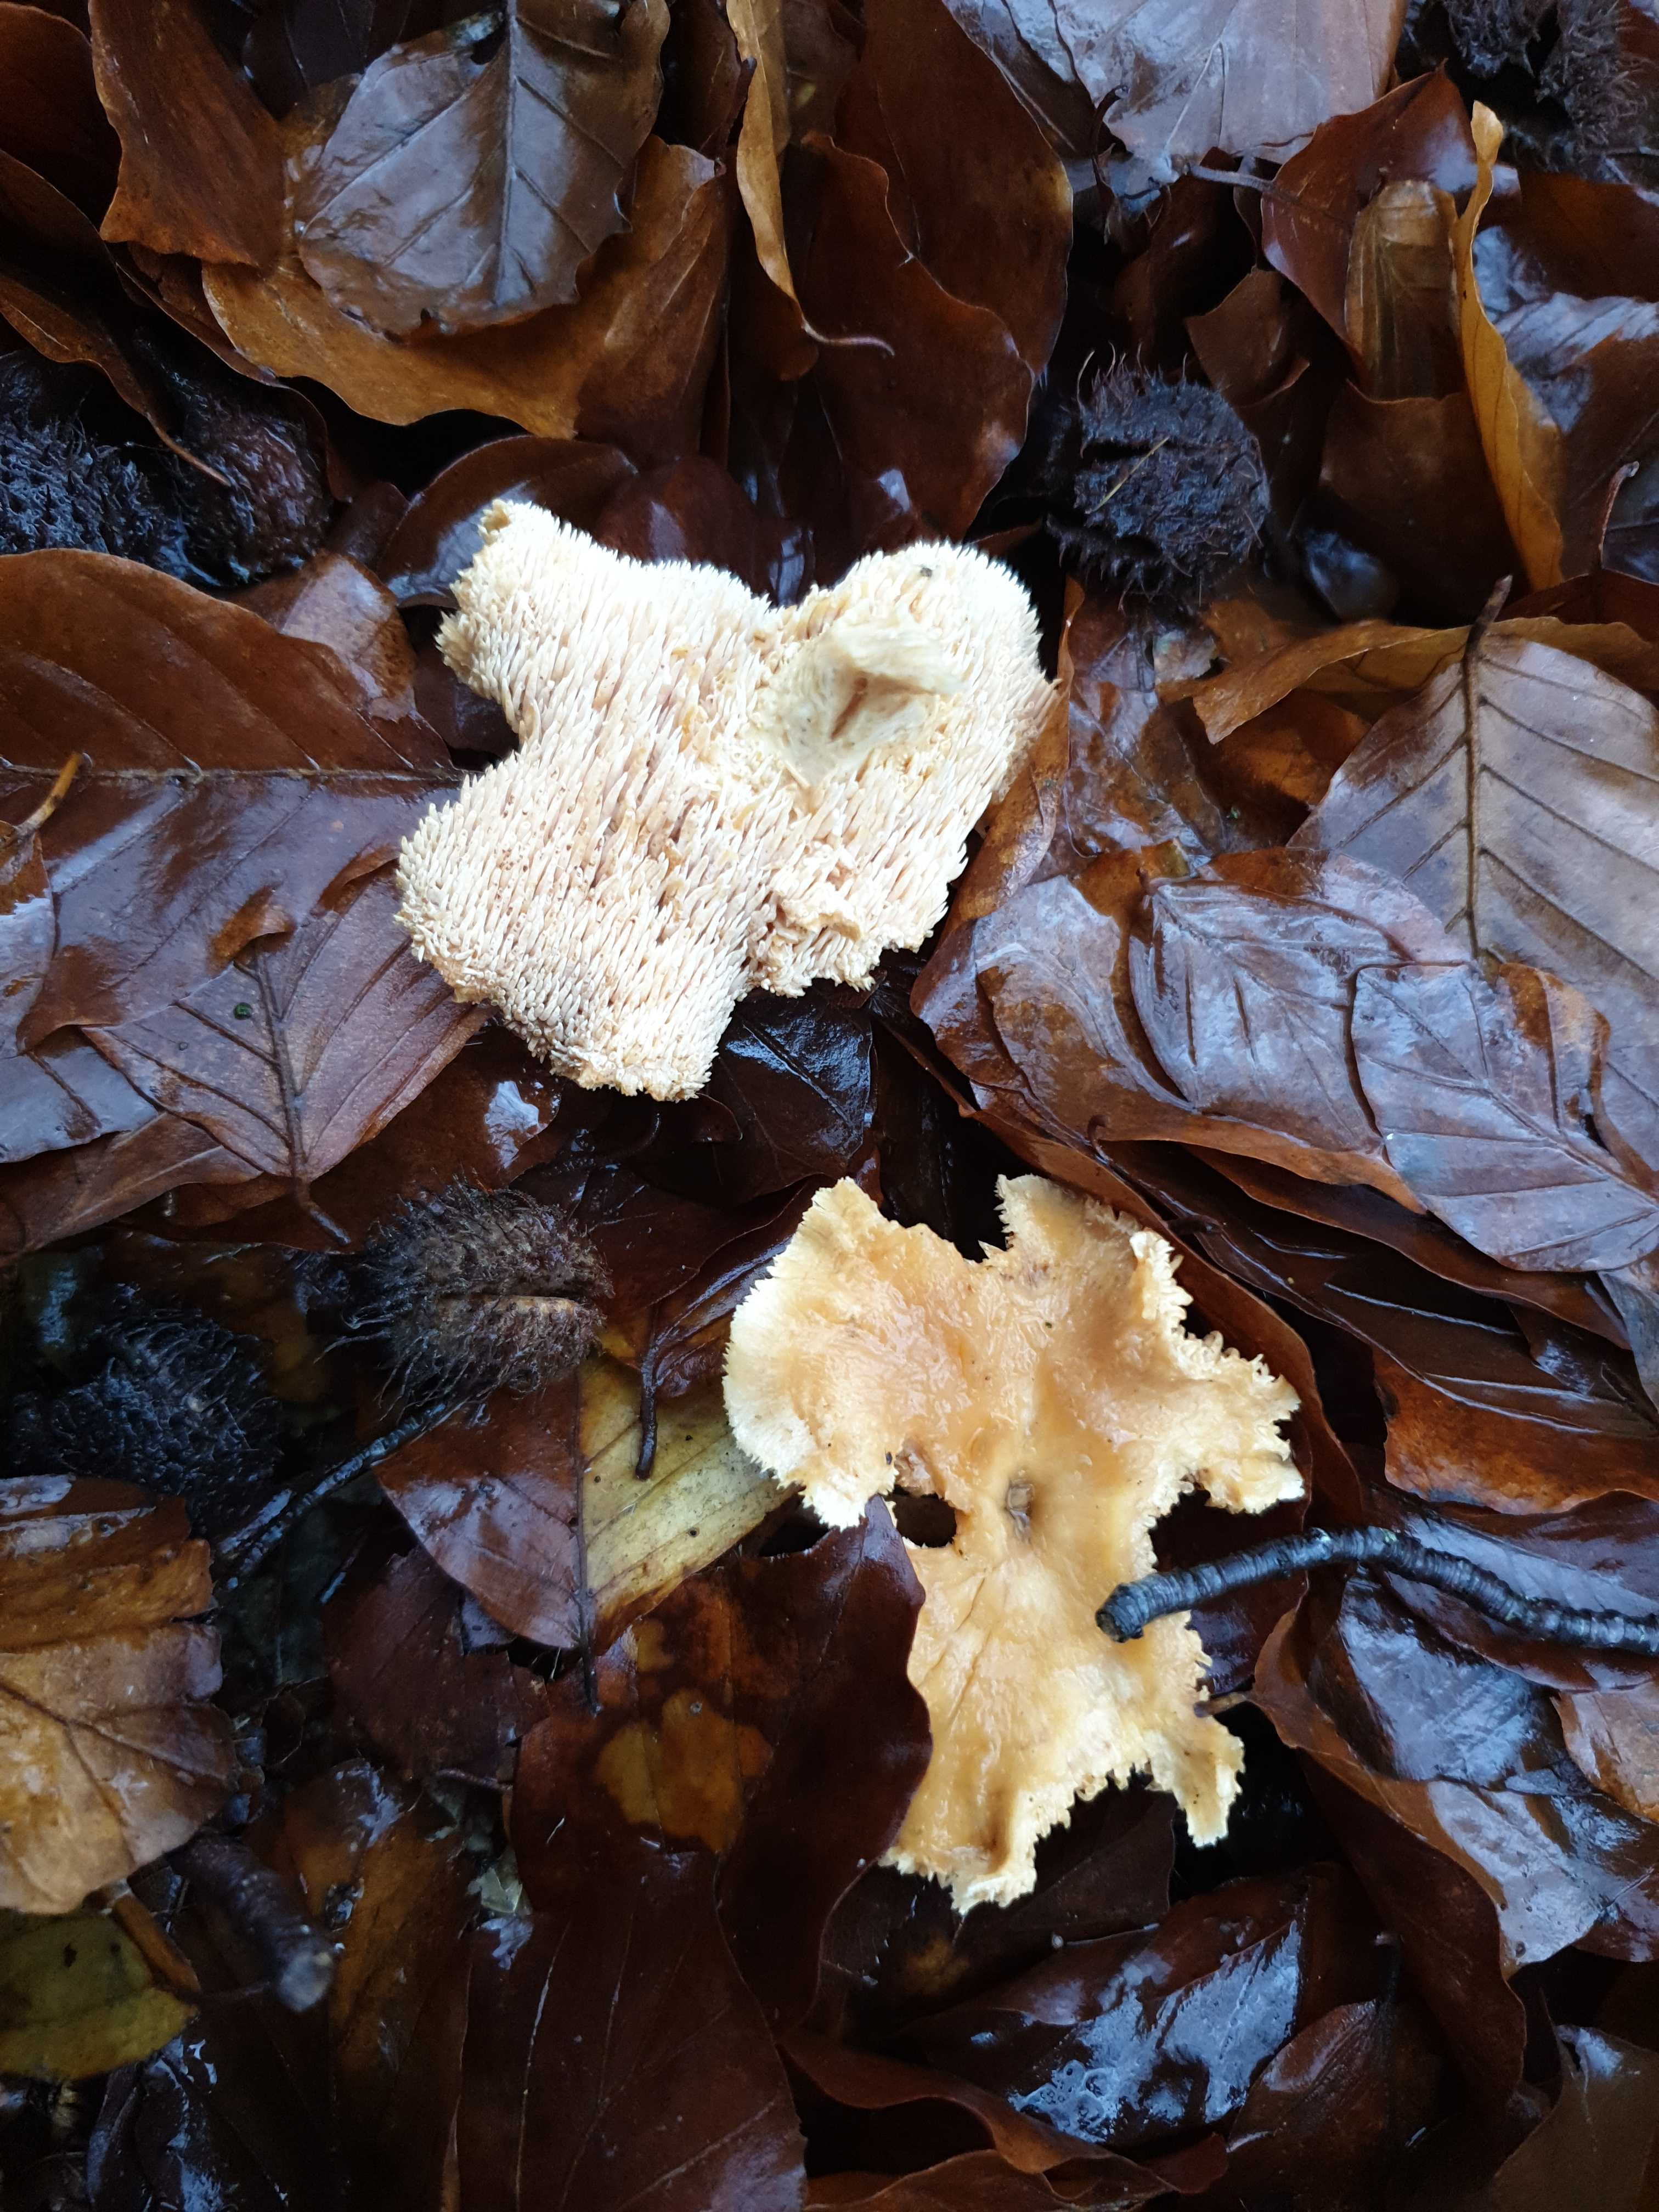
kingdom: Fungi
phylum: Basidiomycota
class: Agaricomycetes
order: Cantharellales
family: Hydnaceae
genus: Hydnum
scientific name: Hydnum
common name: pigsvamp
